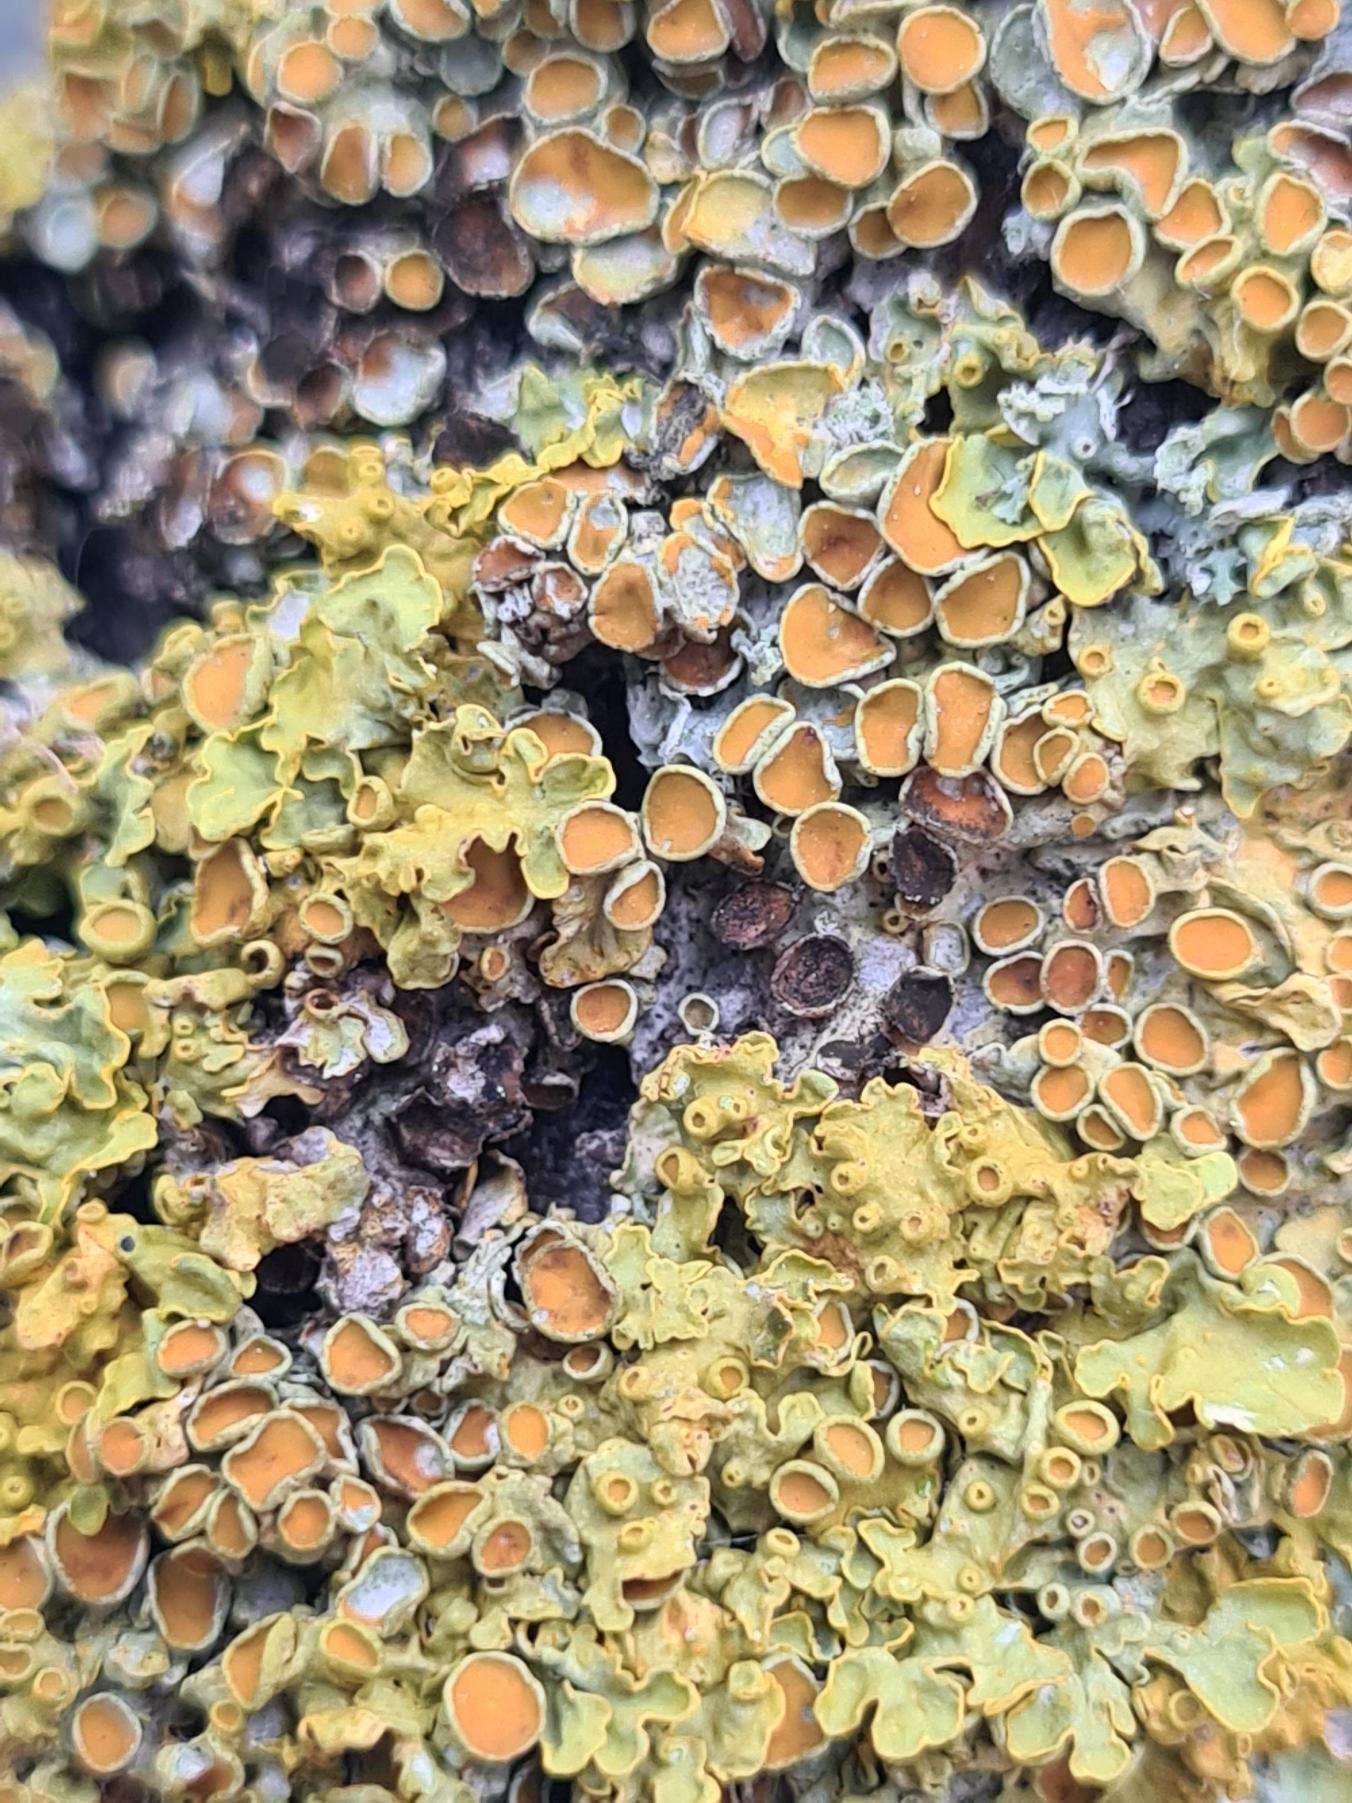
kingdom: Fungi
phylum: Ascomycota
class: Lecanoromycetes
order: Teloschistales
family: Teloschistaceae
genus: Xanthoria
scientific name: Xanthoria parietina
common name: Almindelig væggelav
